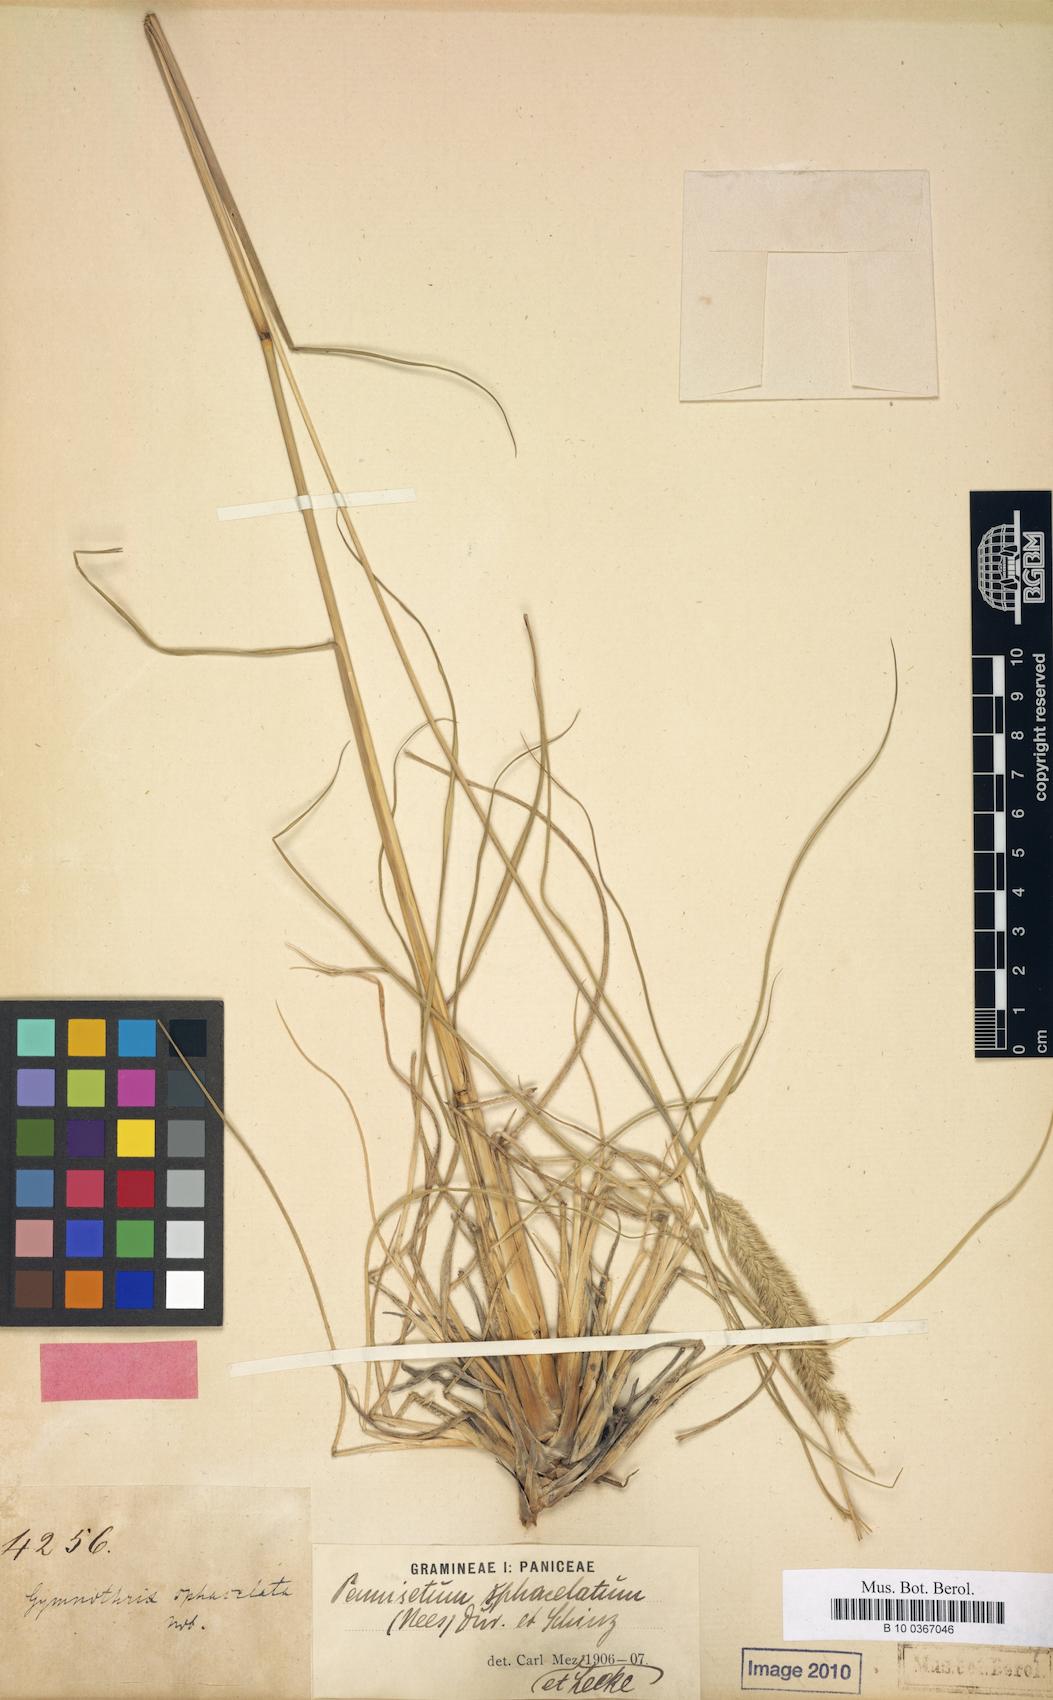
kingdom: Plantae
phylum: Tracheophyta
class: Liliopsida
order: Poales
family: Poaceae
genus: Cenchrus
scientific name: Cenchrus sphacelatus
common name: Bulgras
